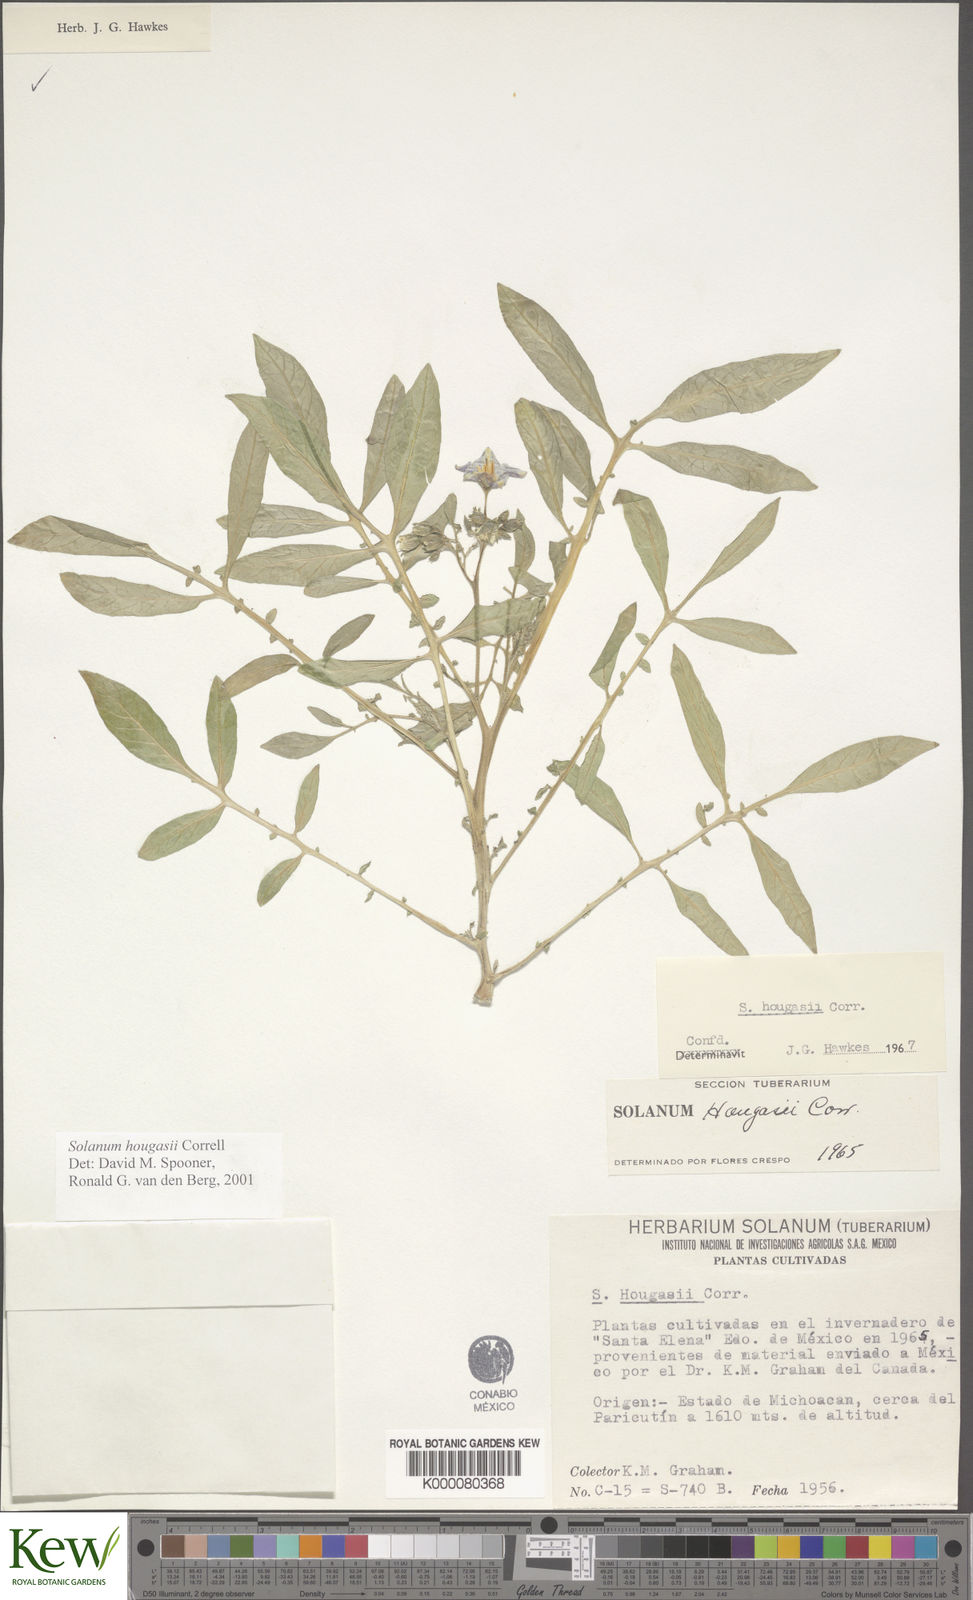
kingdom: Plantae
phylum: Tracheophyta
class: Magnoliopsida
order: Solanales
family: Solanaceae
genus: Solanum
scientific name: Solanum hougasii
